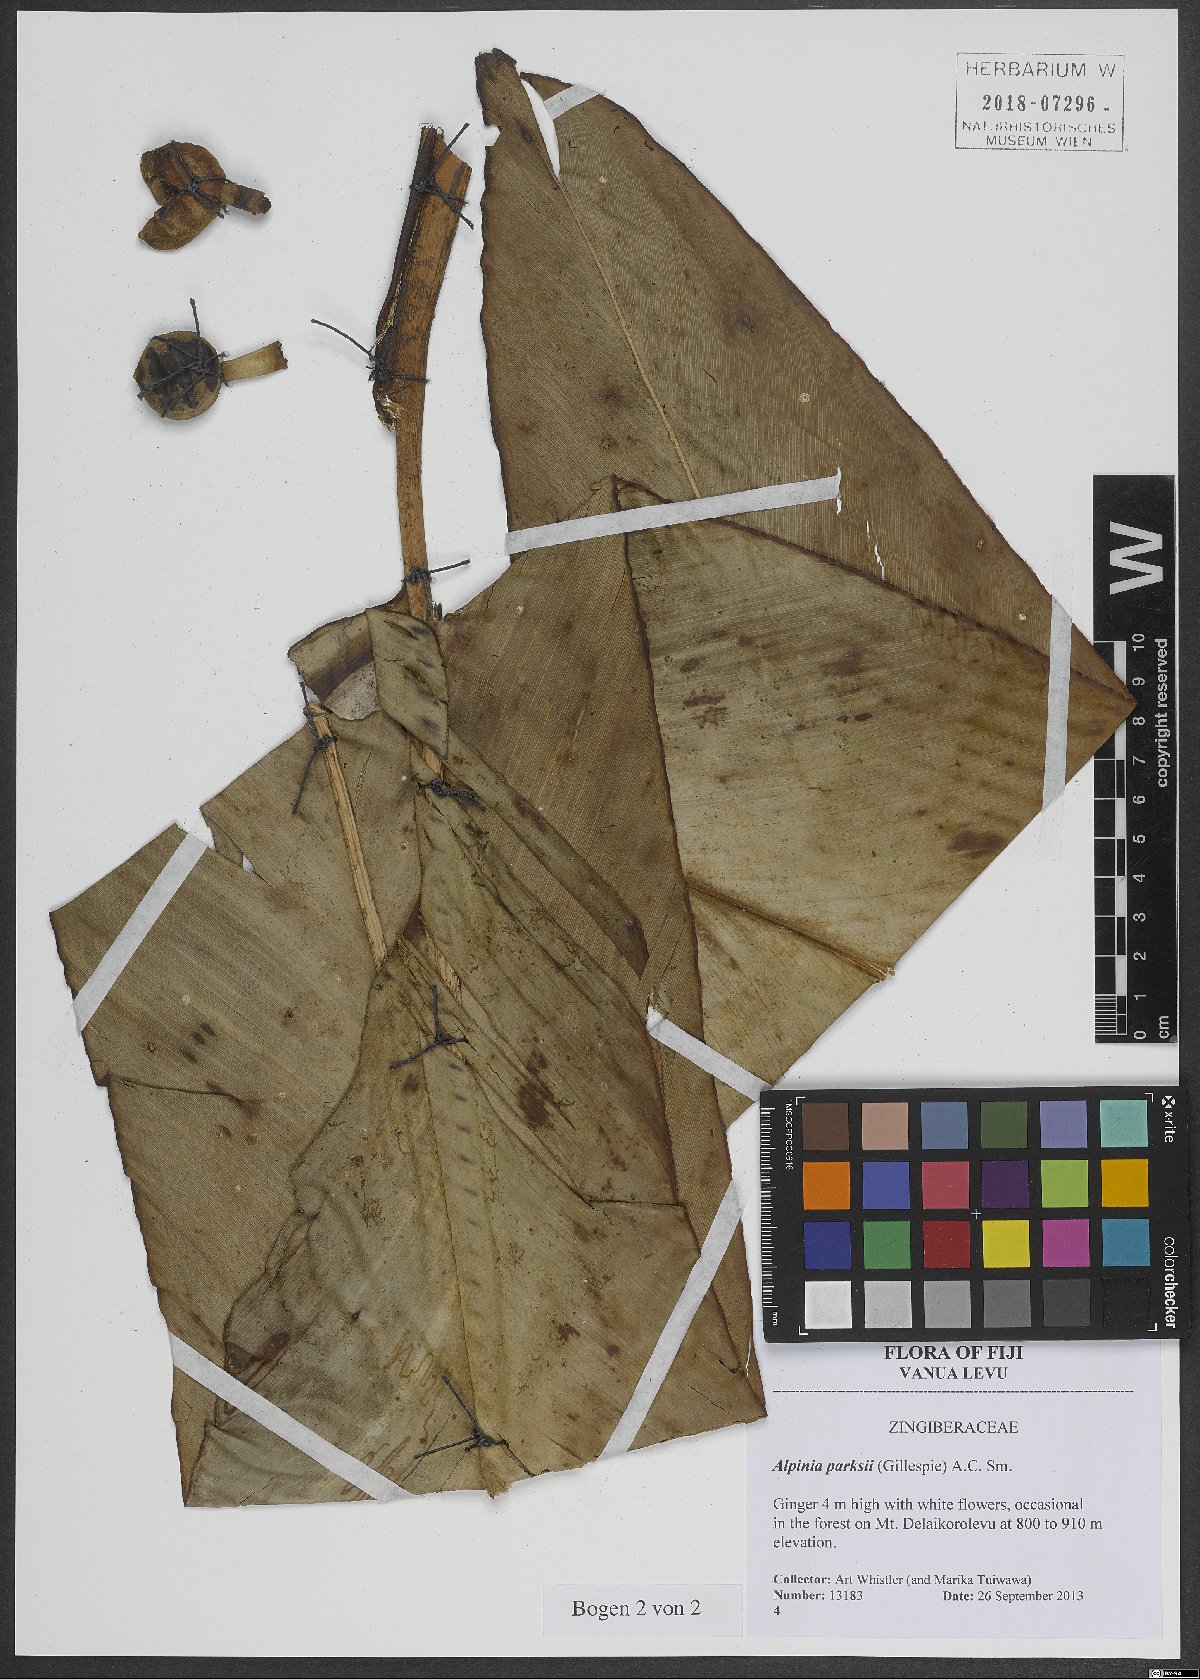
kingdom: Plantae
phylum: Tracheophyta
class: Liliopsida
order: Zingiberales
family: Zingiberaceae
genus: Alpinia
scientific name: Alpinia parksii
